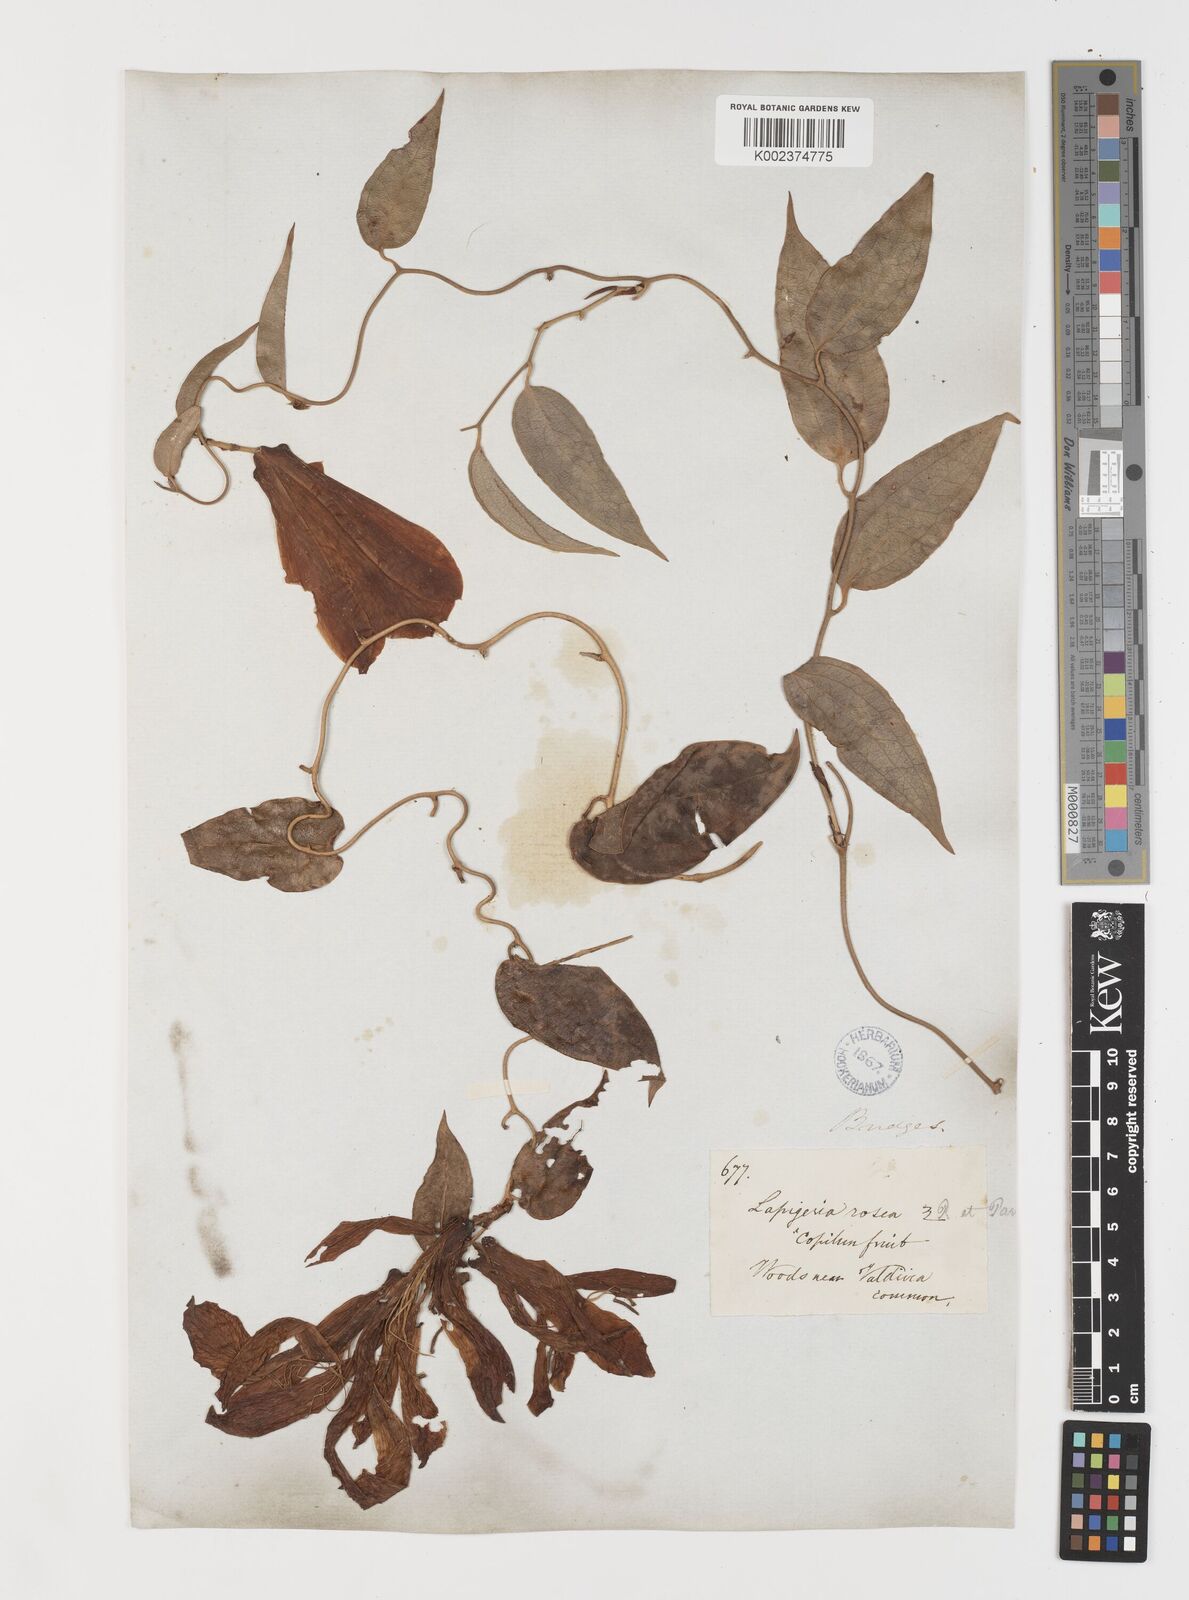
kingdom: Plantae
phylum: Tracheophyta
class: Liliopsida
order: Liliales
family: Philesiaceae
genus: Lapageria
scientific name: Lapageria rosea
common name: Chilean-bellflower
